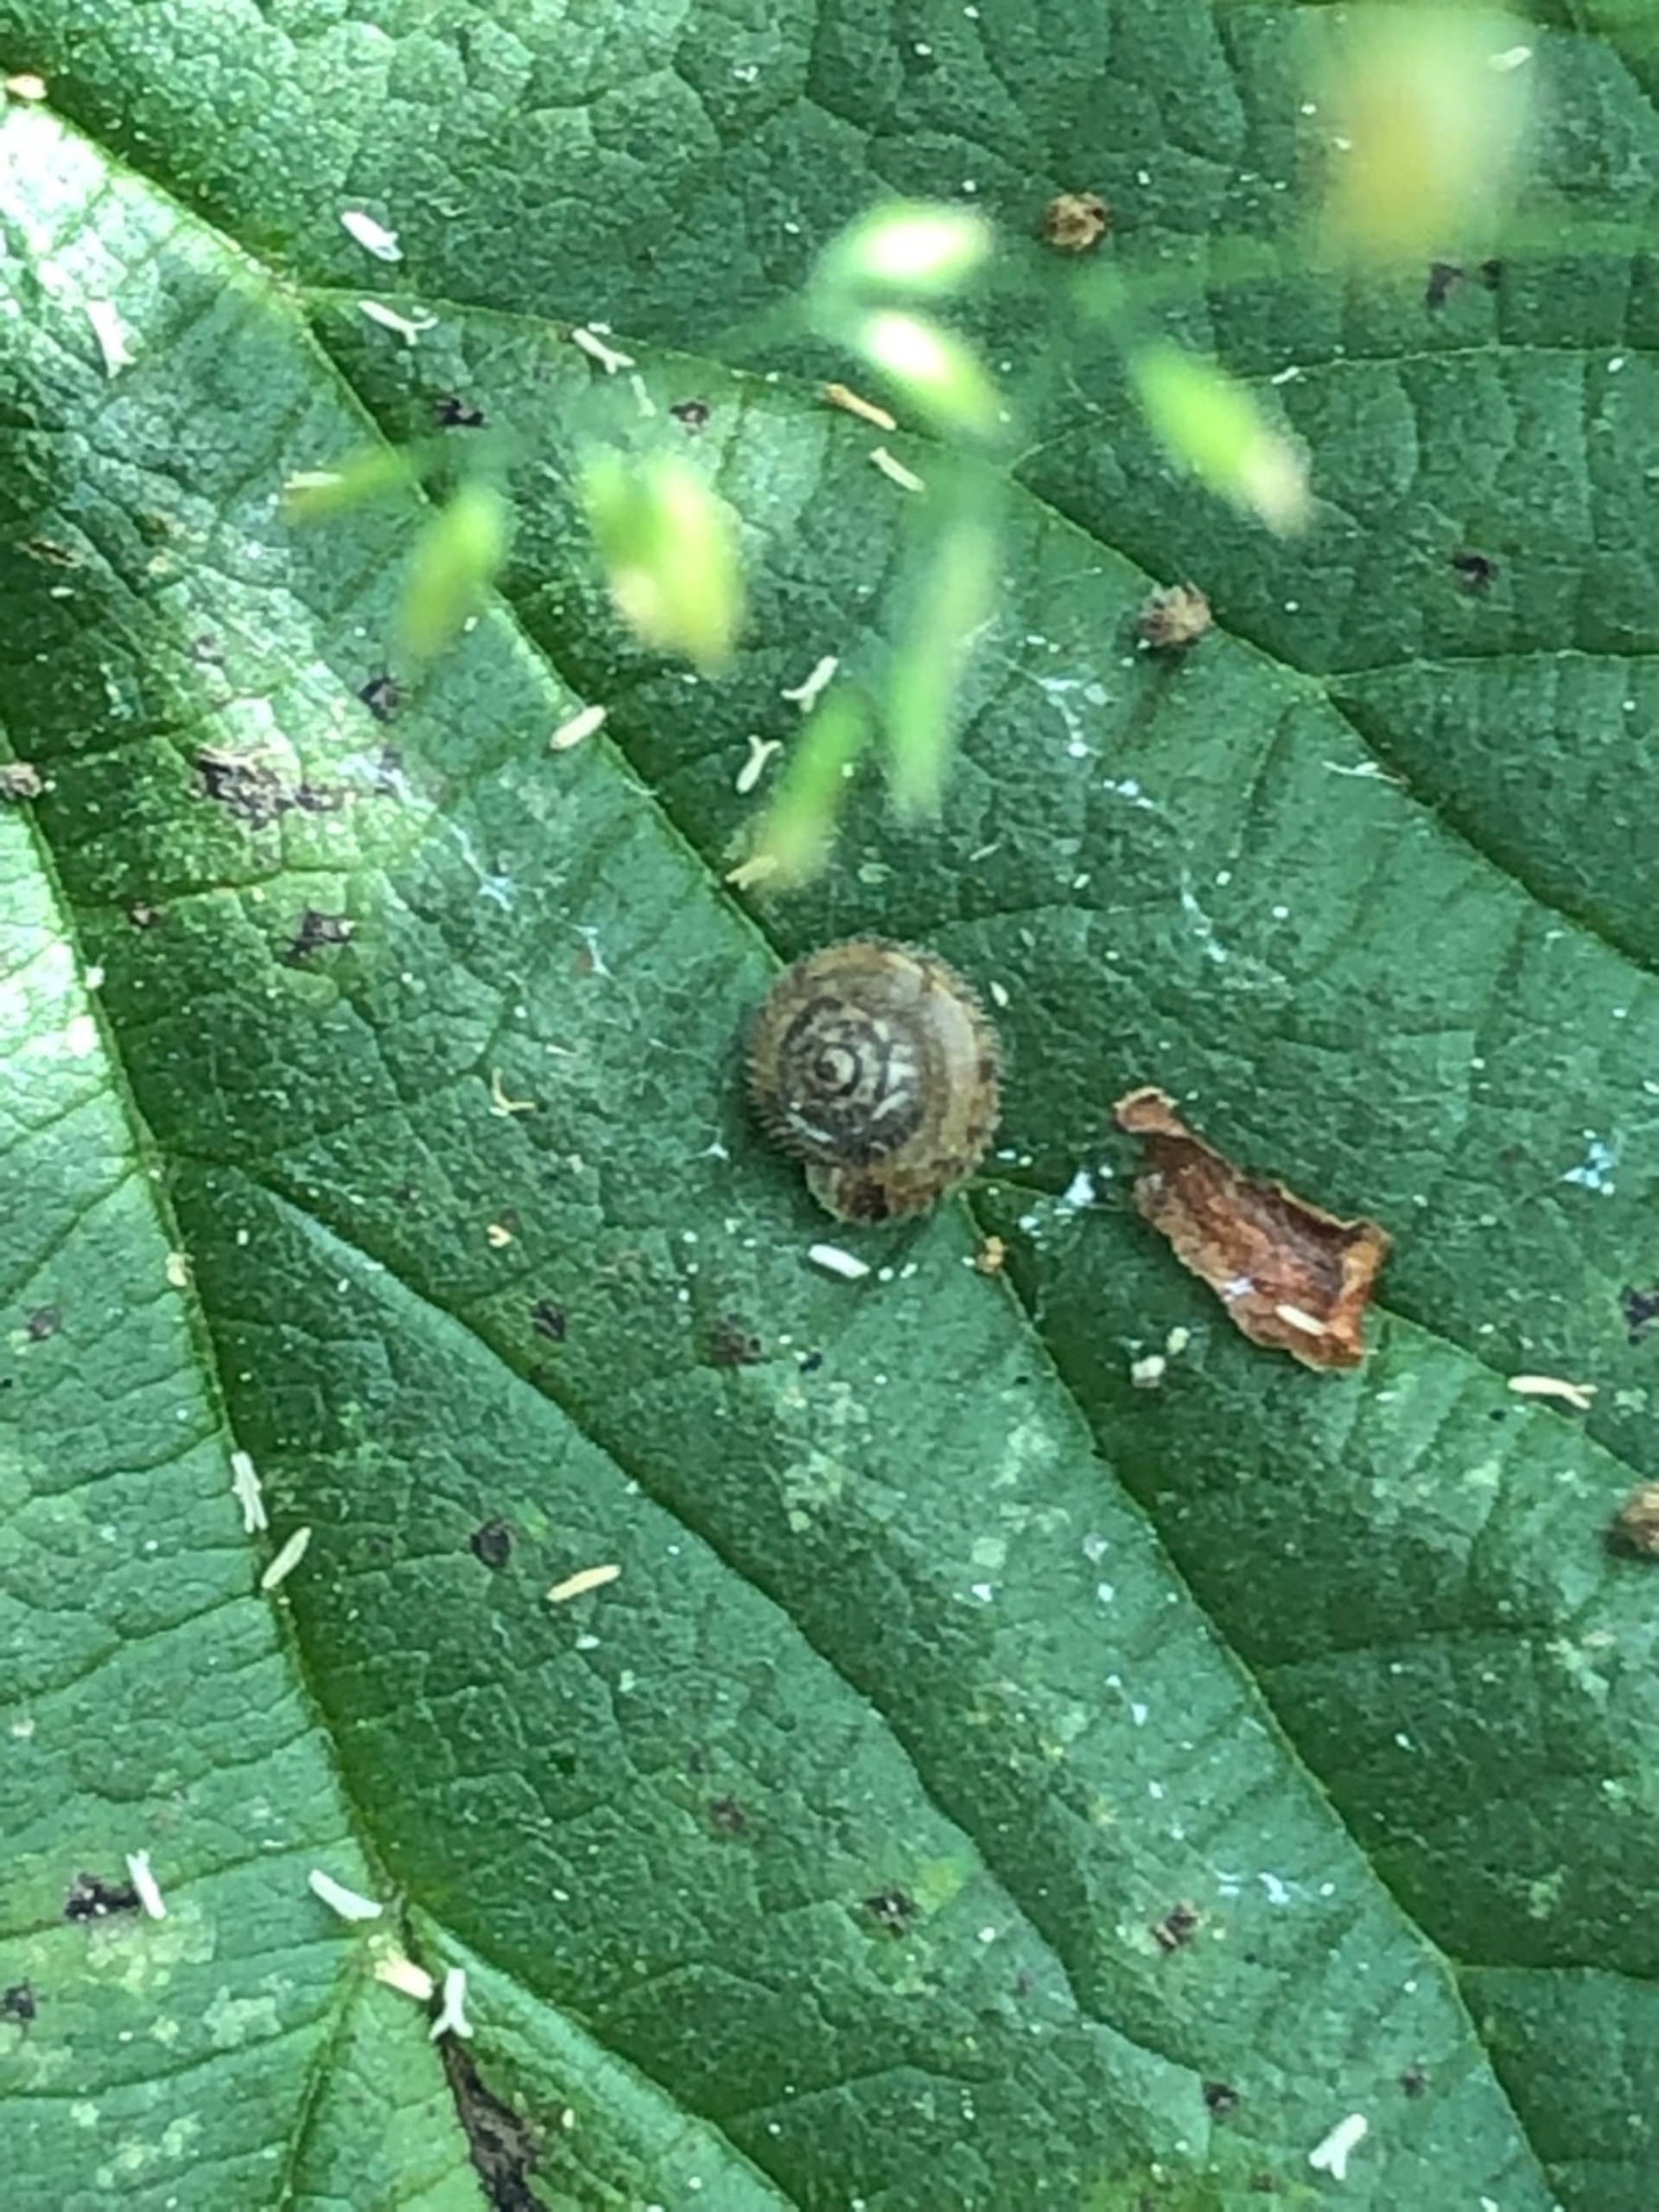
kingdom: Animalia
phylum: Mollusca
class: Gastropoda
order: Stylommatophora
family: Hygromiidae
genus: Trochulus
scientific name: Trochulus hispidus
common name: Håret snegl
